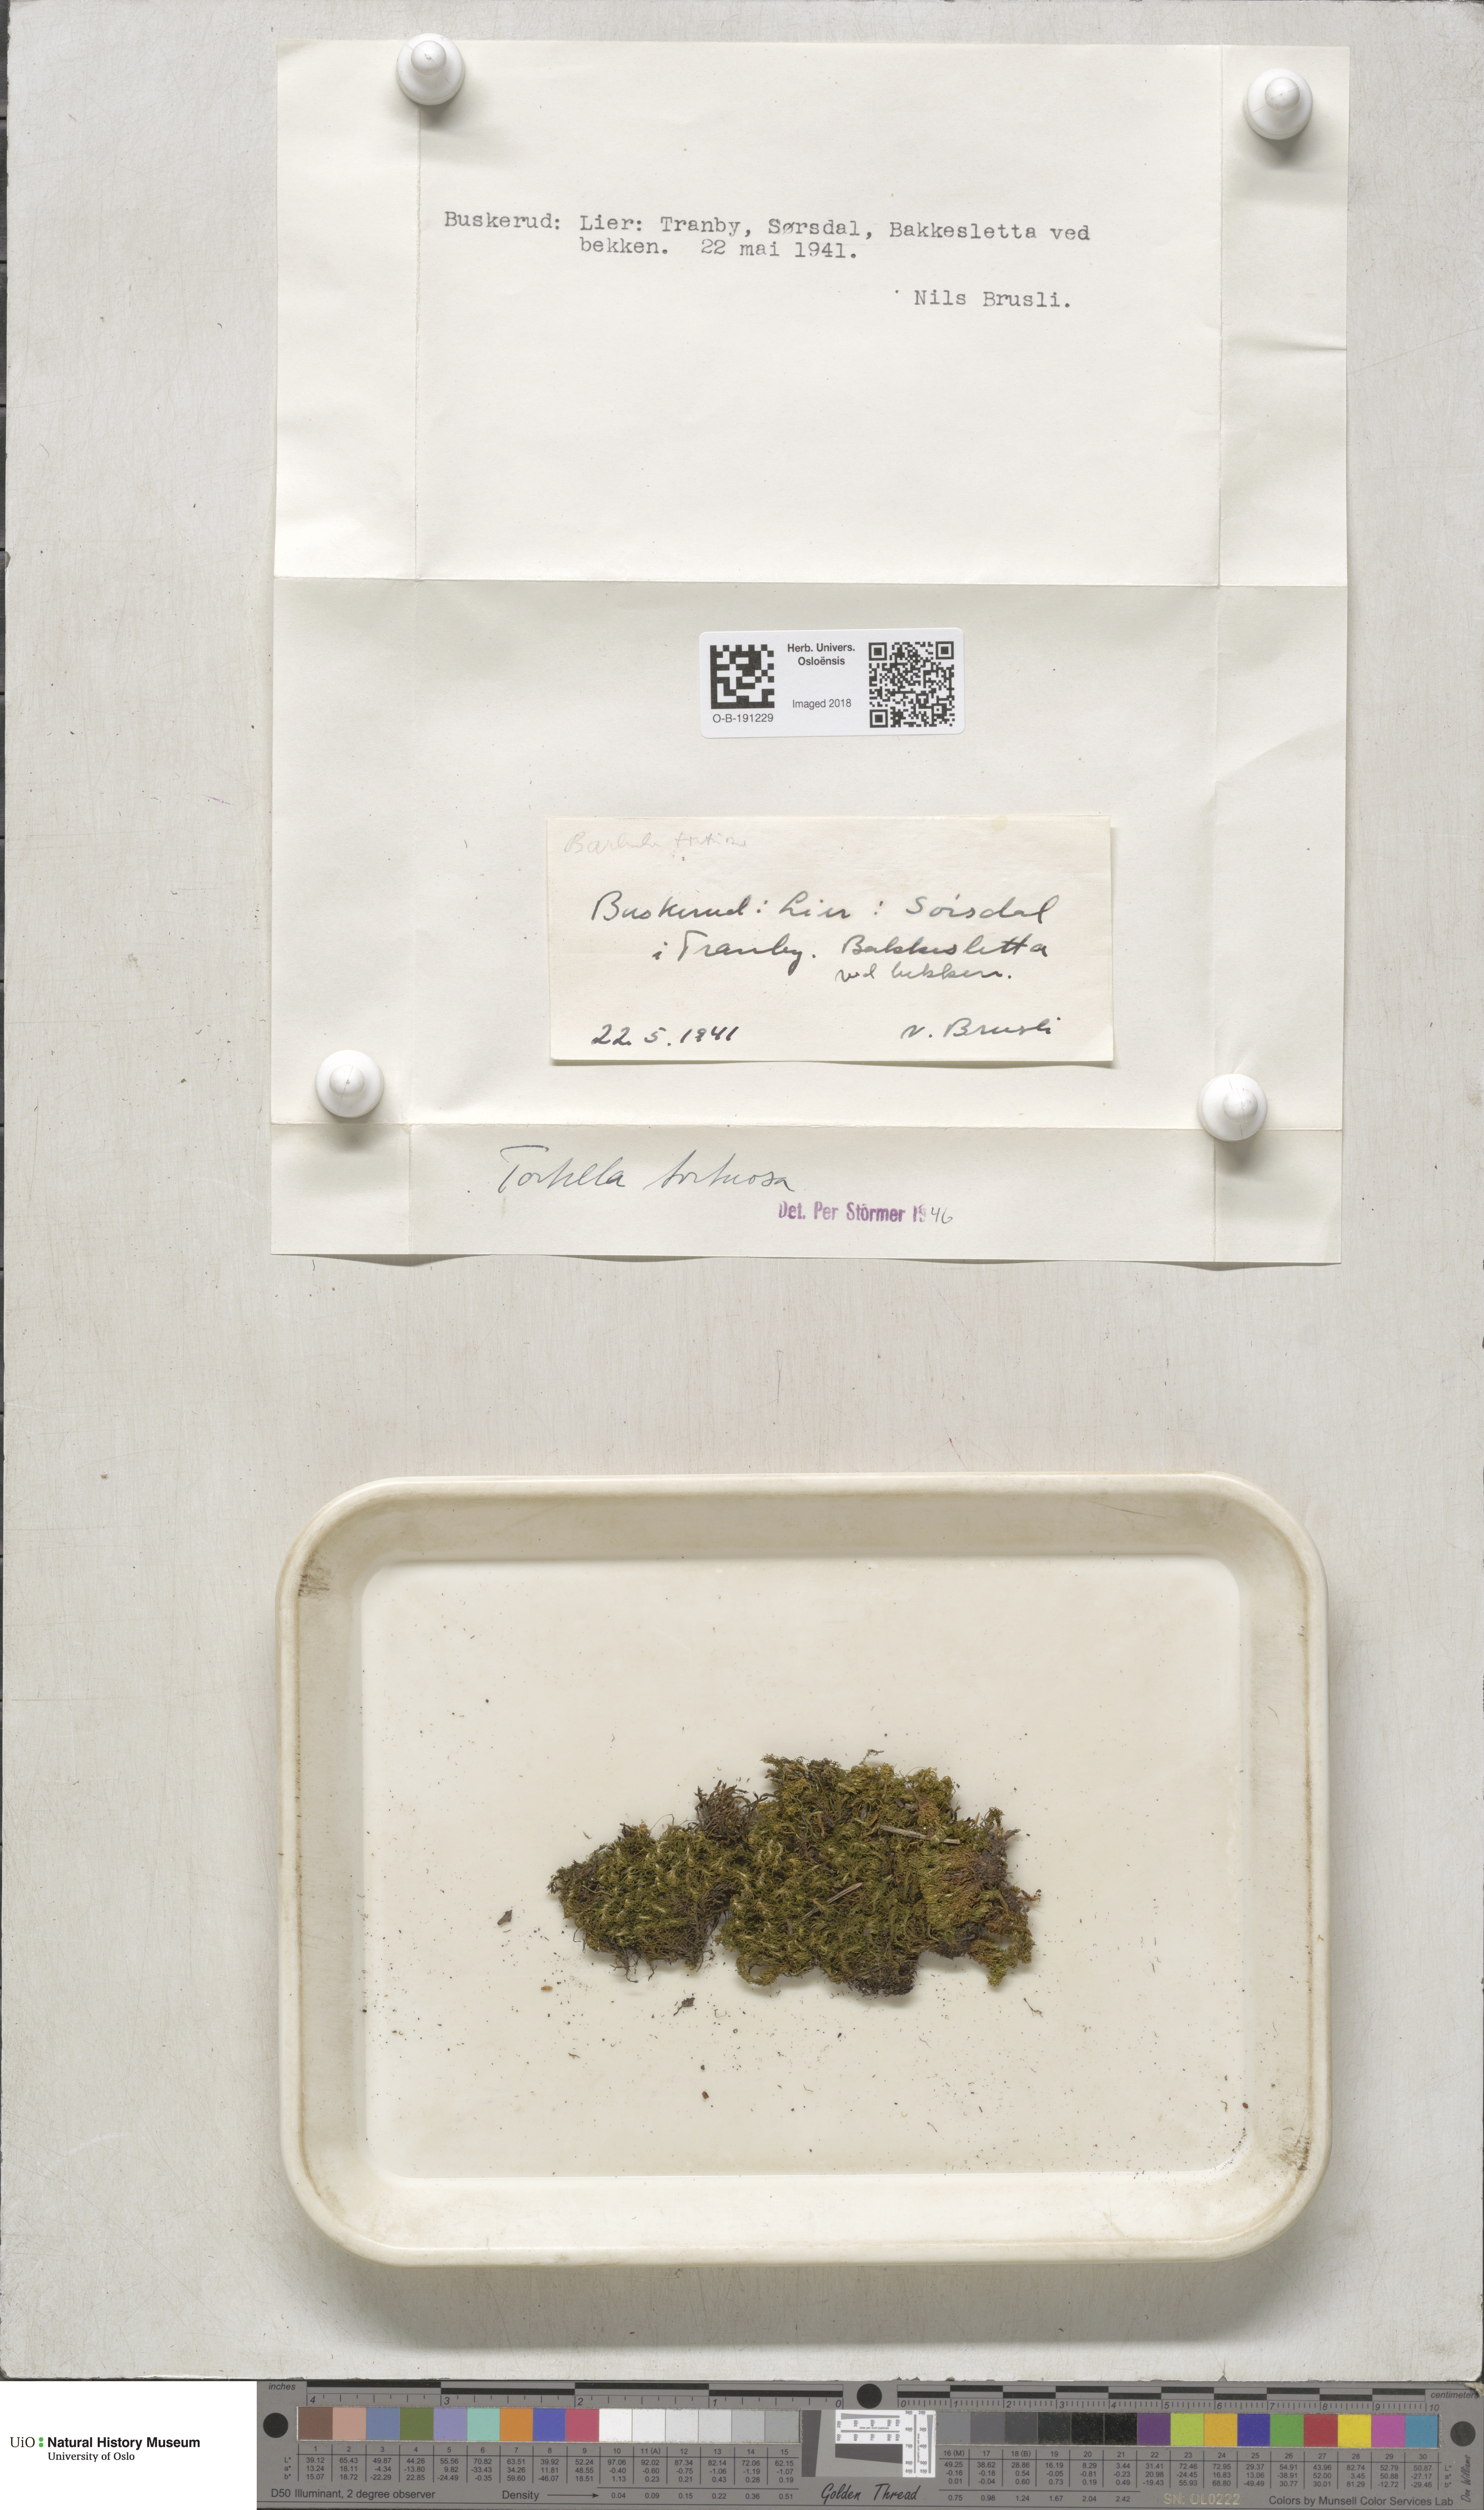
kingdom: Plantae
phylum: Bryophyta
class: Bryopsida
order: Pottiales
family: Pottiaceae
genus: Tortella
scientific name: Tortella tortuosa
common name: Frizzled crisp moss
